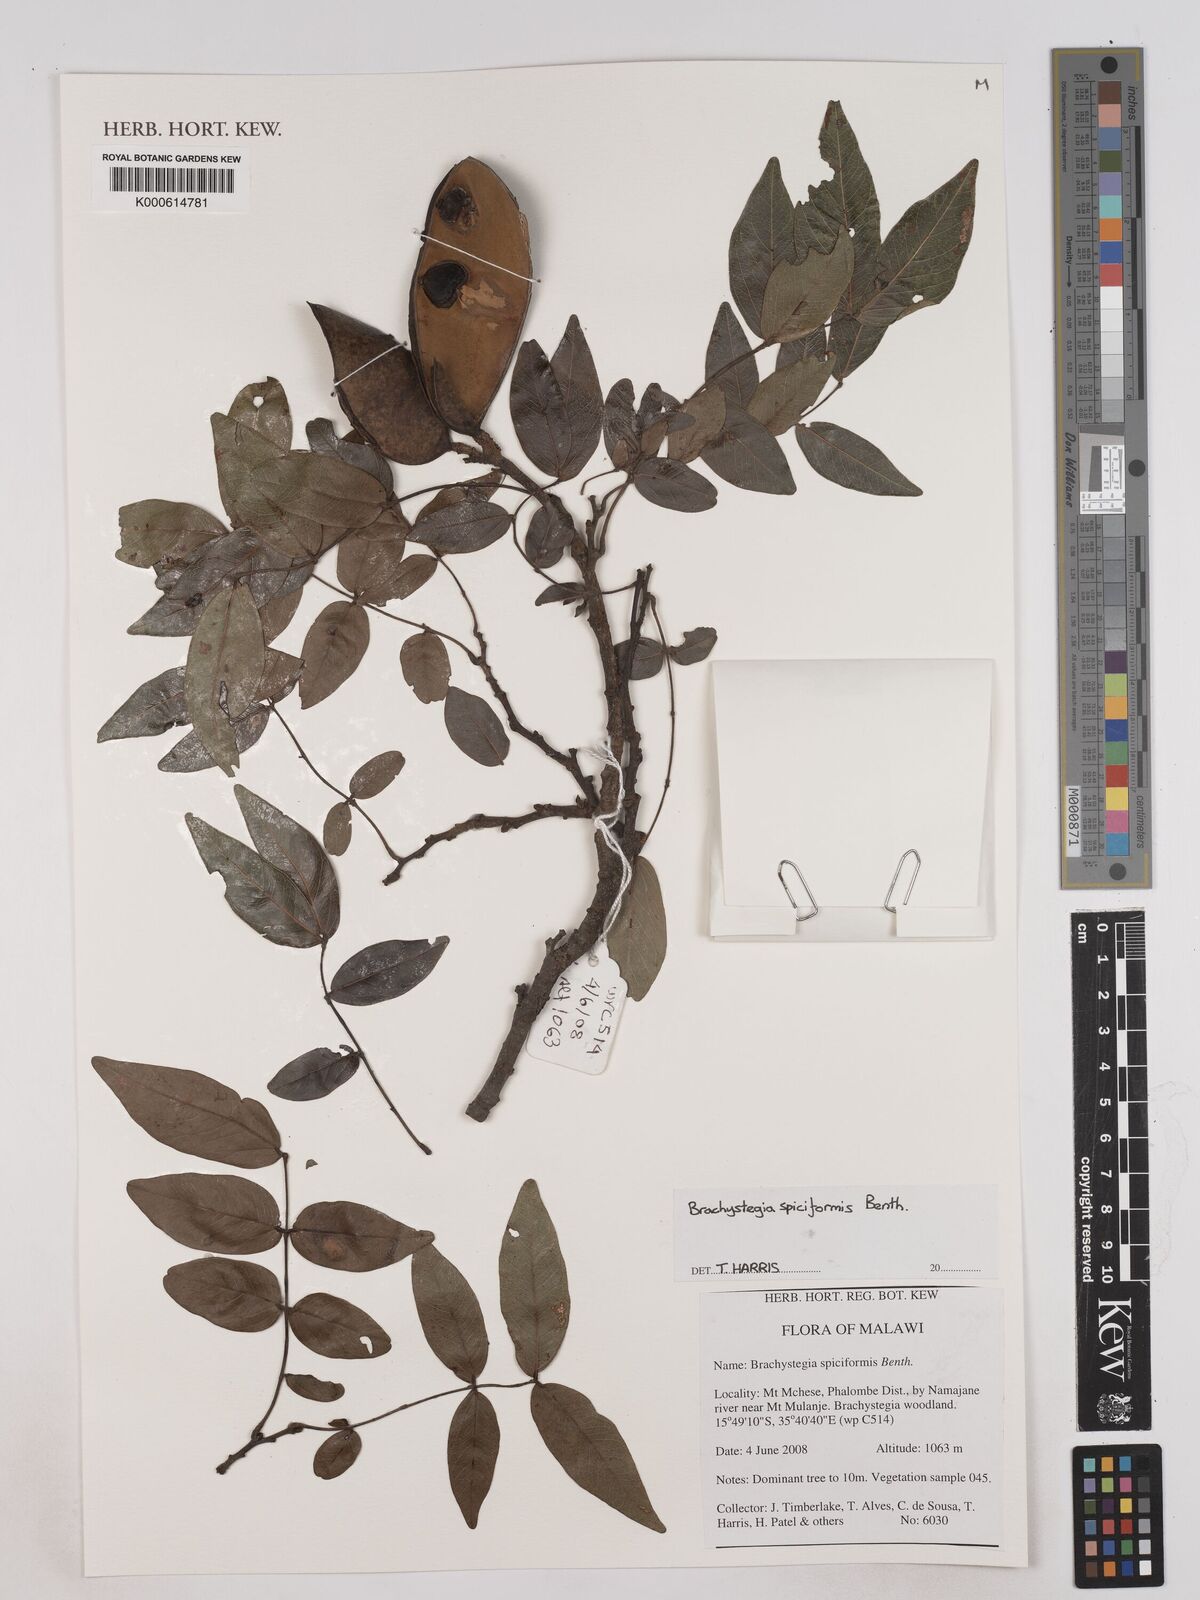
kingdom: Plantae
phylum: Tracheophyta
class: Magnoliopsida
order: Fabales
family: Fabaceae
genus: Brachystegia
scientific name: Brachystegia spiciformis
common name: Zebrawood
